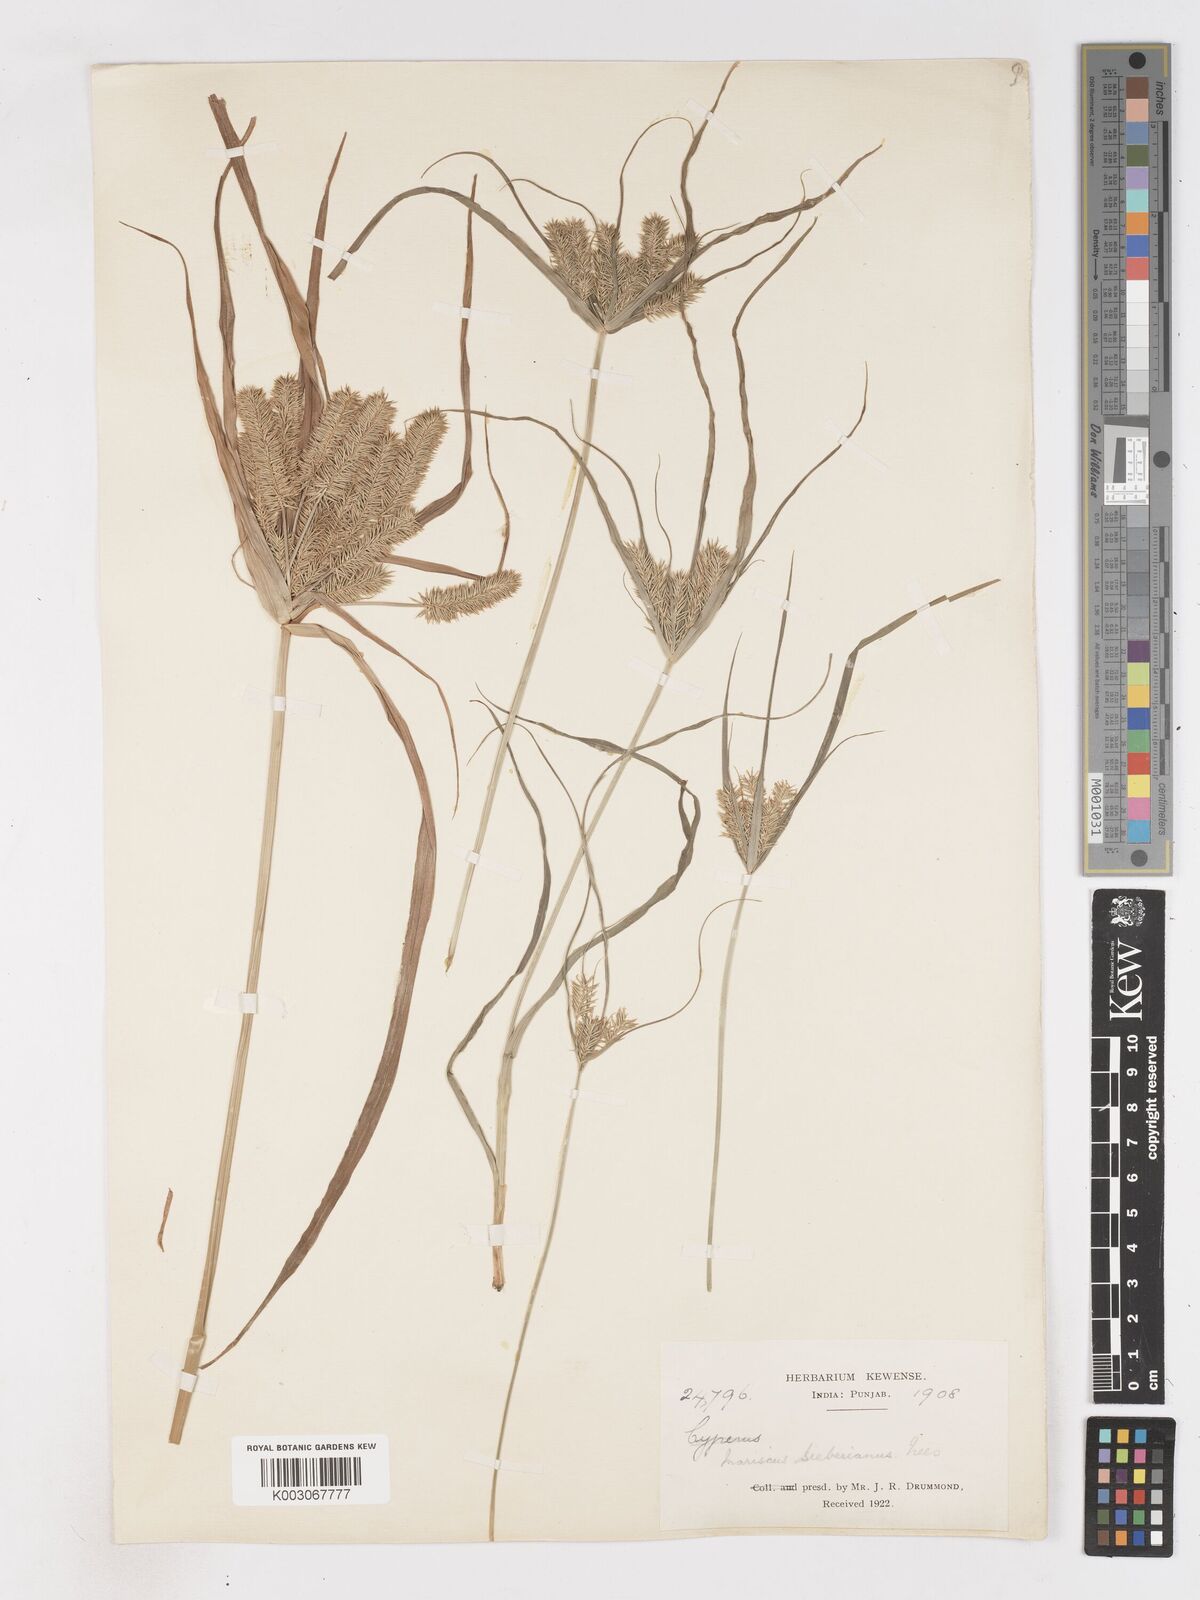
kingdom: Plantae
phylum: Tracheophyta
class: Liliopsida
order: Poales
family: Cyperaceae
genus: Cyperus
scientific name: Cyperus cyperoides
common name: Pacific island flat sedge
